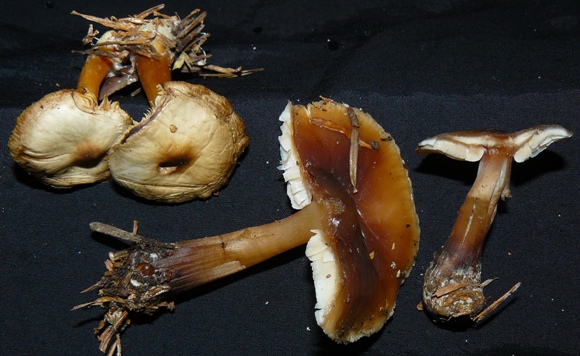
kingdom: Fungi
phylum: Basidiomycota
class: Agaricomycetes
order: Agaricales
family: Omphalotaceae
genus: Rhodocollybia
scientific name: Rhodocollybia asema
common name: horngrå fladhat
